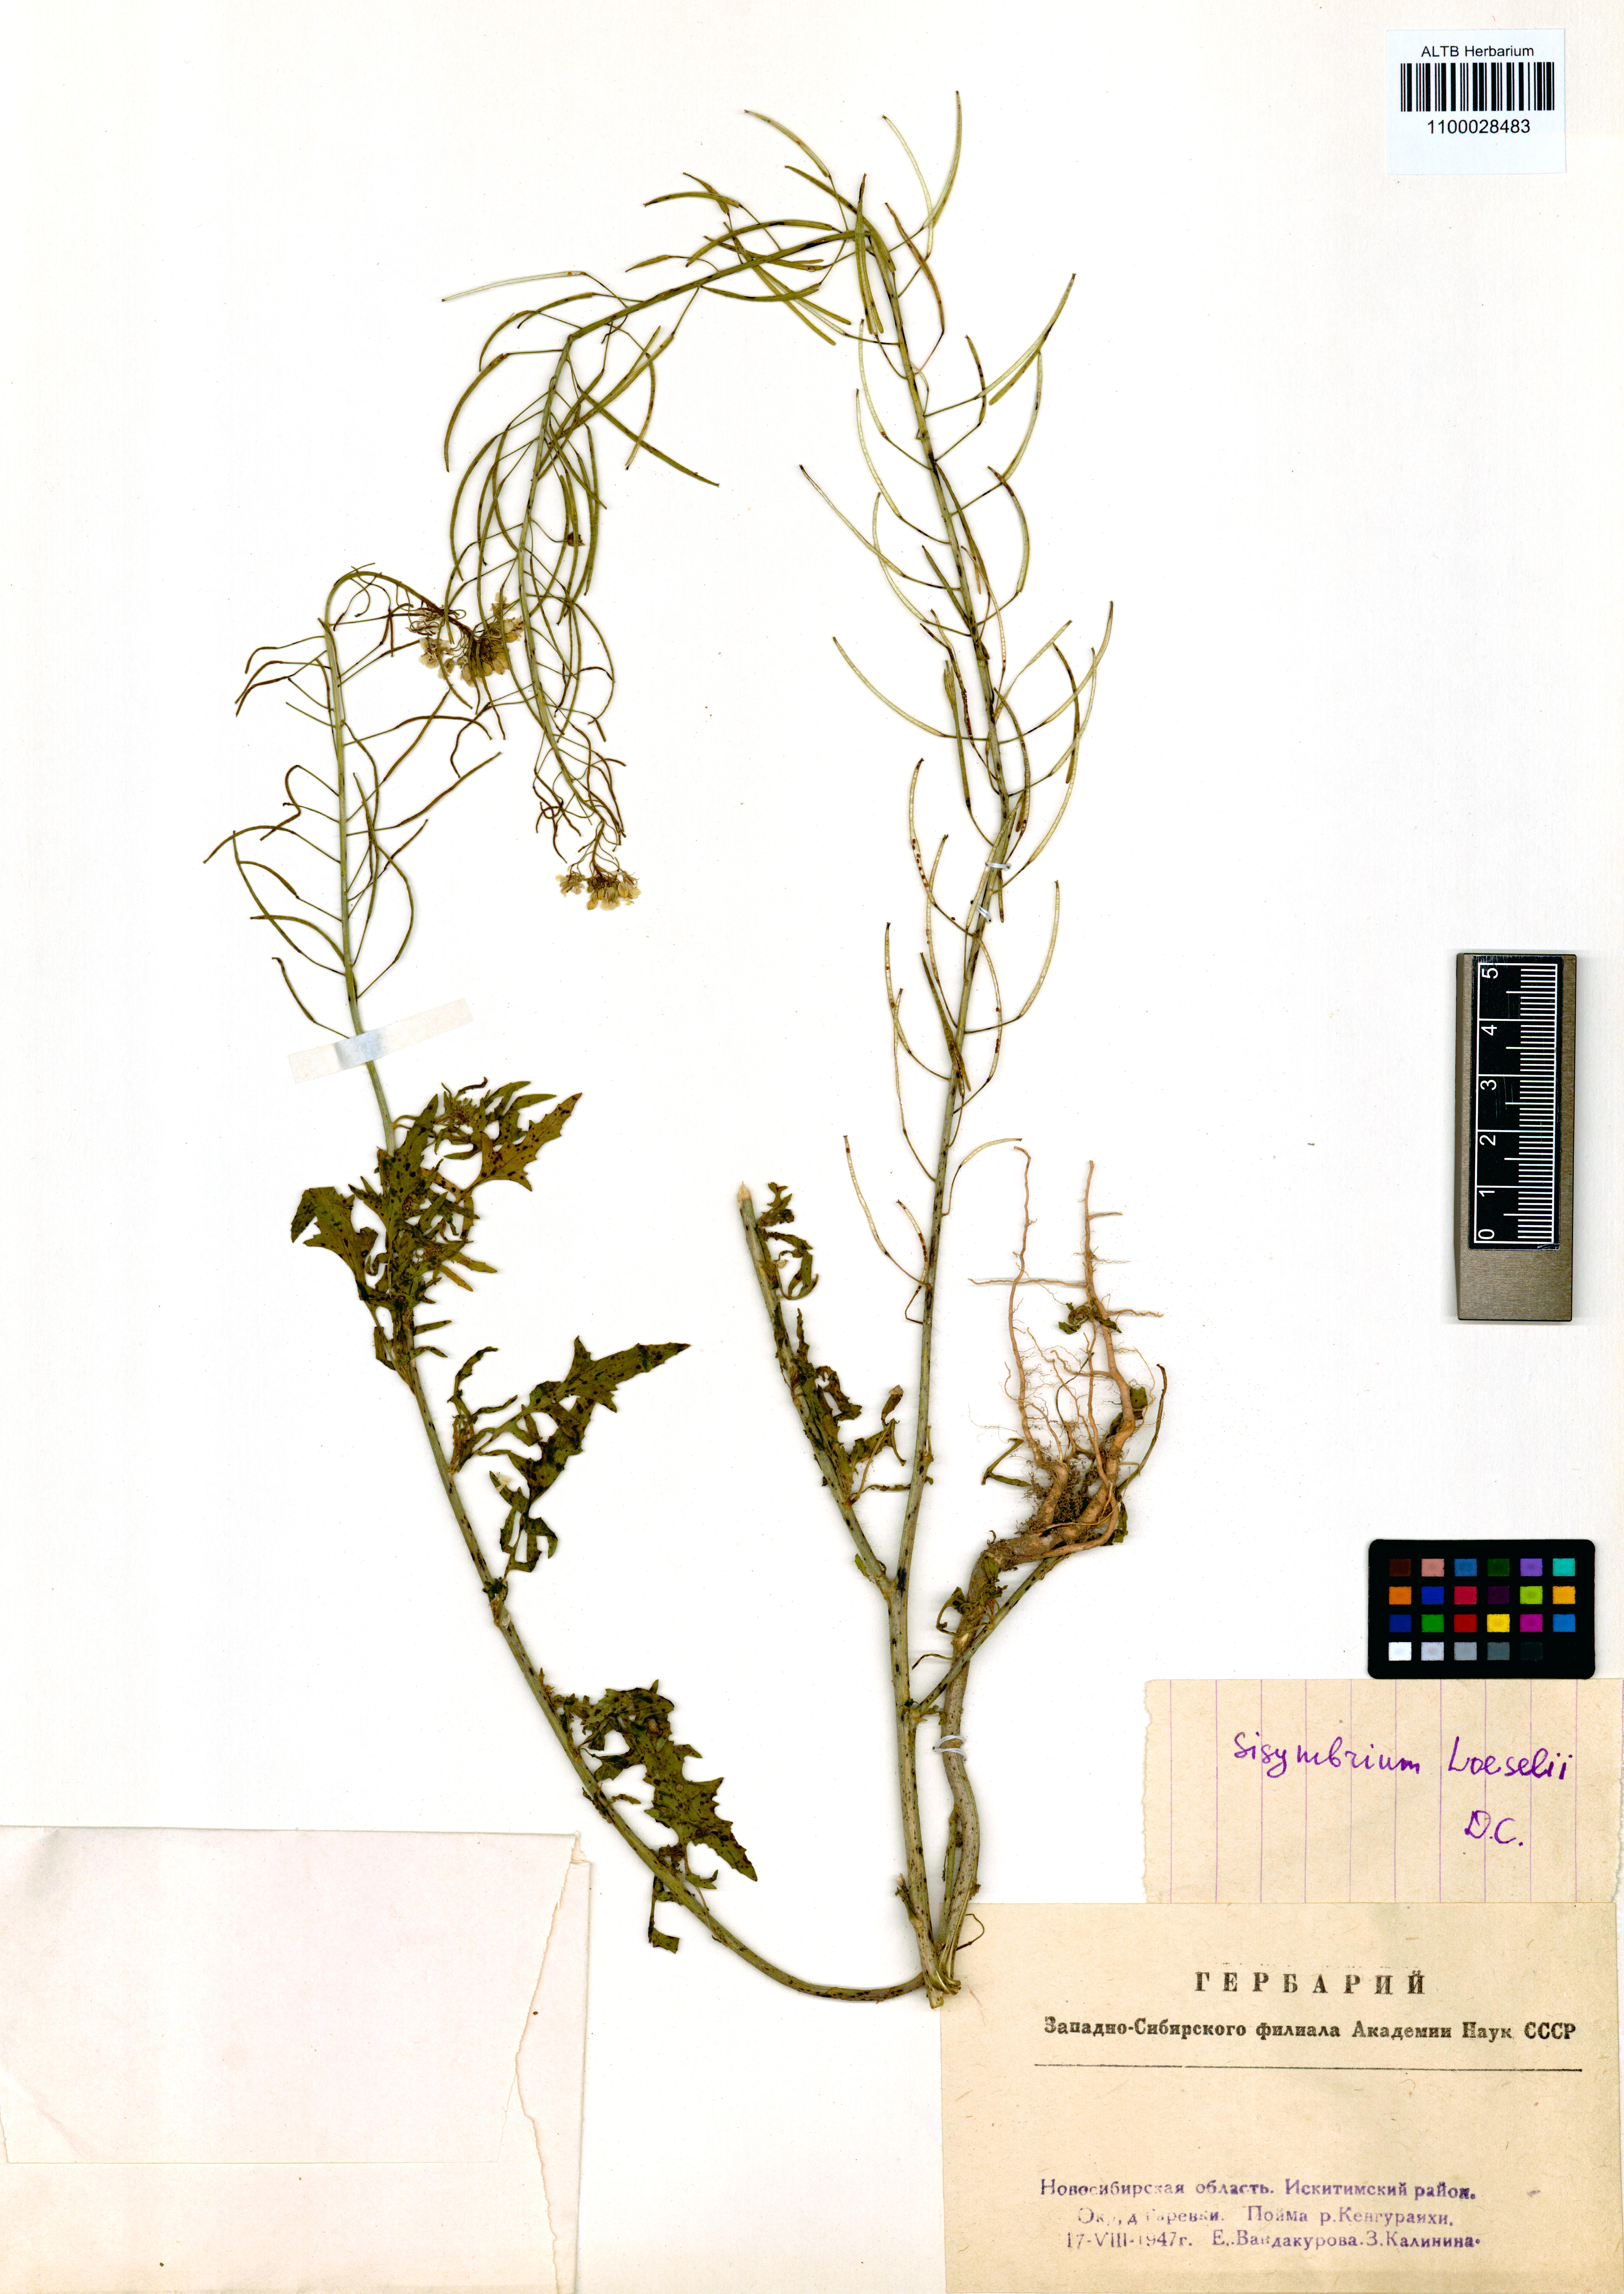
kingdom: Plantae
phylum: Tracheophyta
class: Magnoliopsida
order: Brassicales
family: Brassicaceae
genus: Sisymbrium
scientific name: Sisymbrium loeselii
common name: False london-rocket
